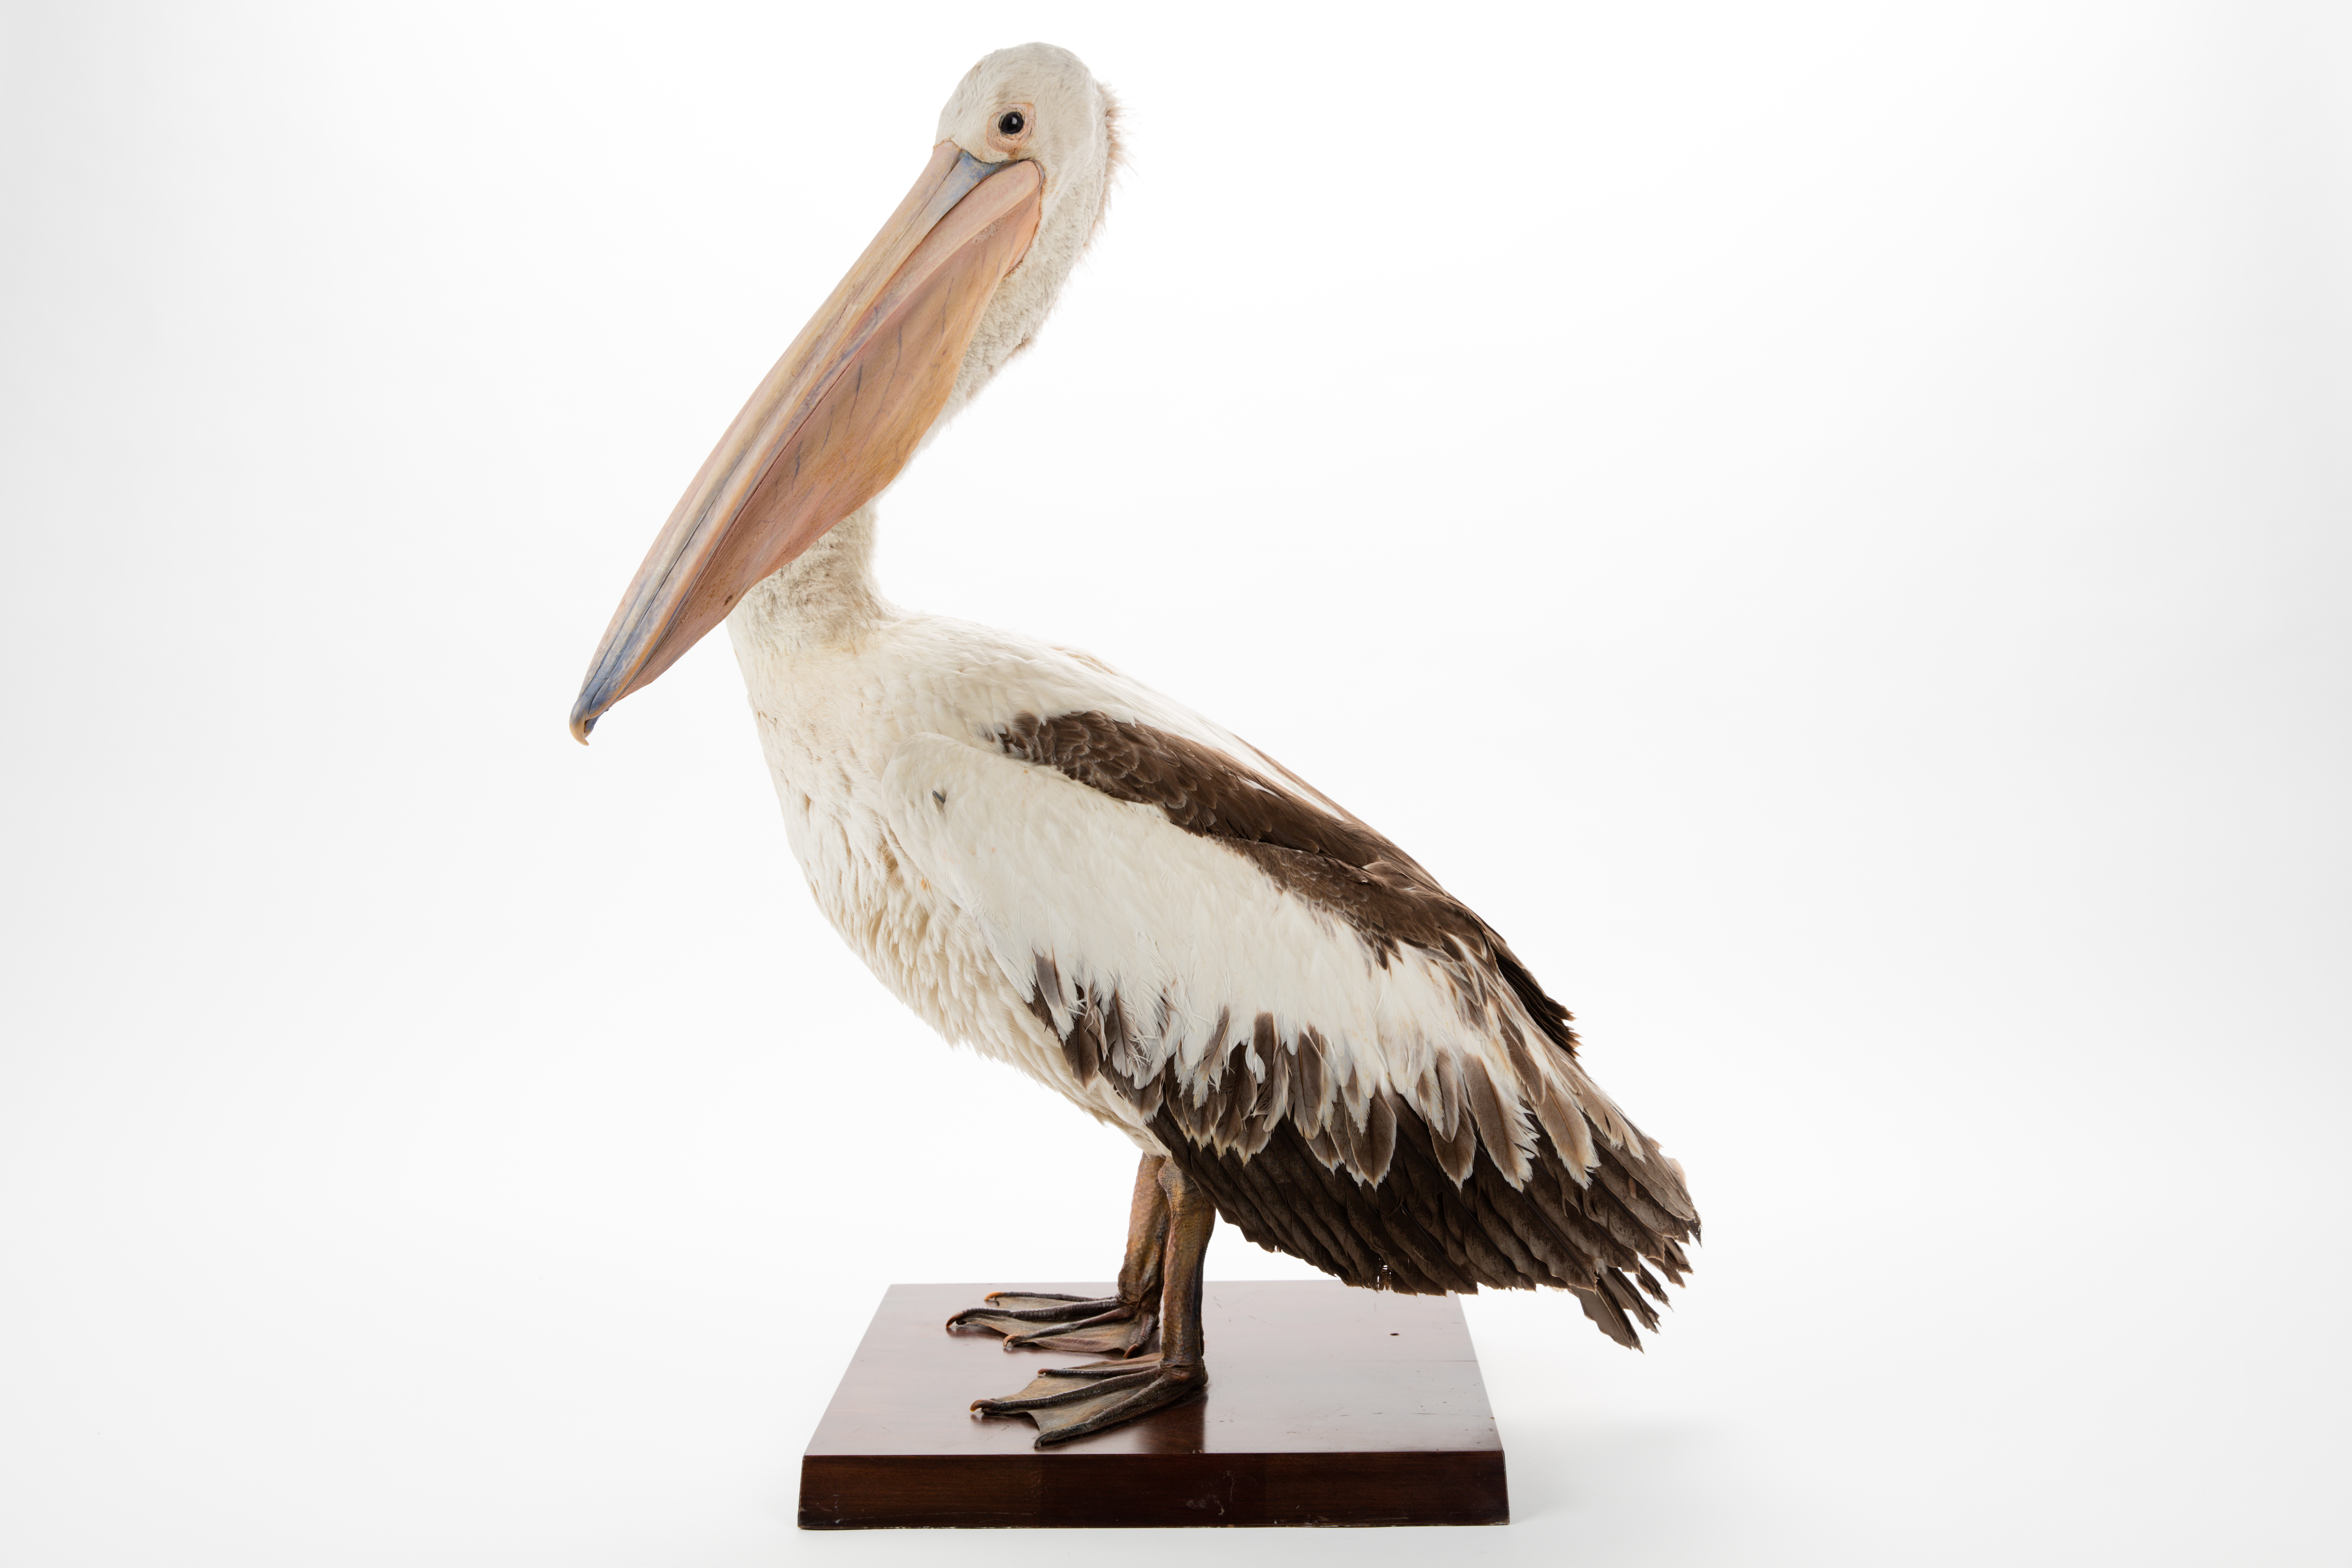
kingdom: Animalia
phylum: Chordata
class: Aves
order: Pelecaniformes
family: Pelecanidae
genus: Pelecanus
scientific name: Pelecanus conspicillatus
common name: Australian pelican
